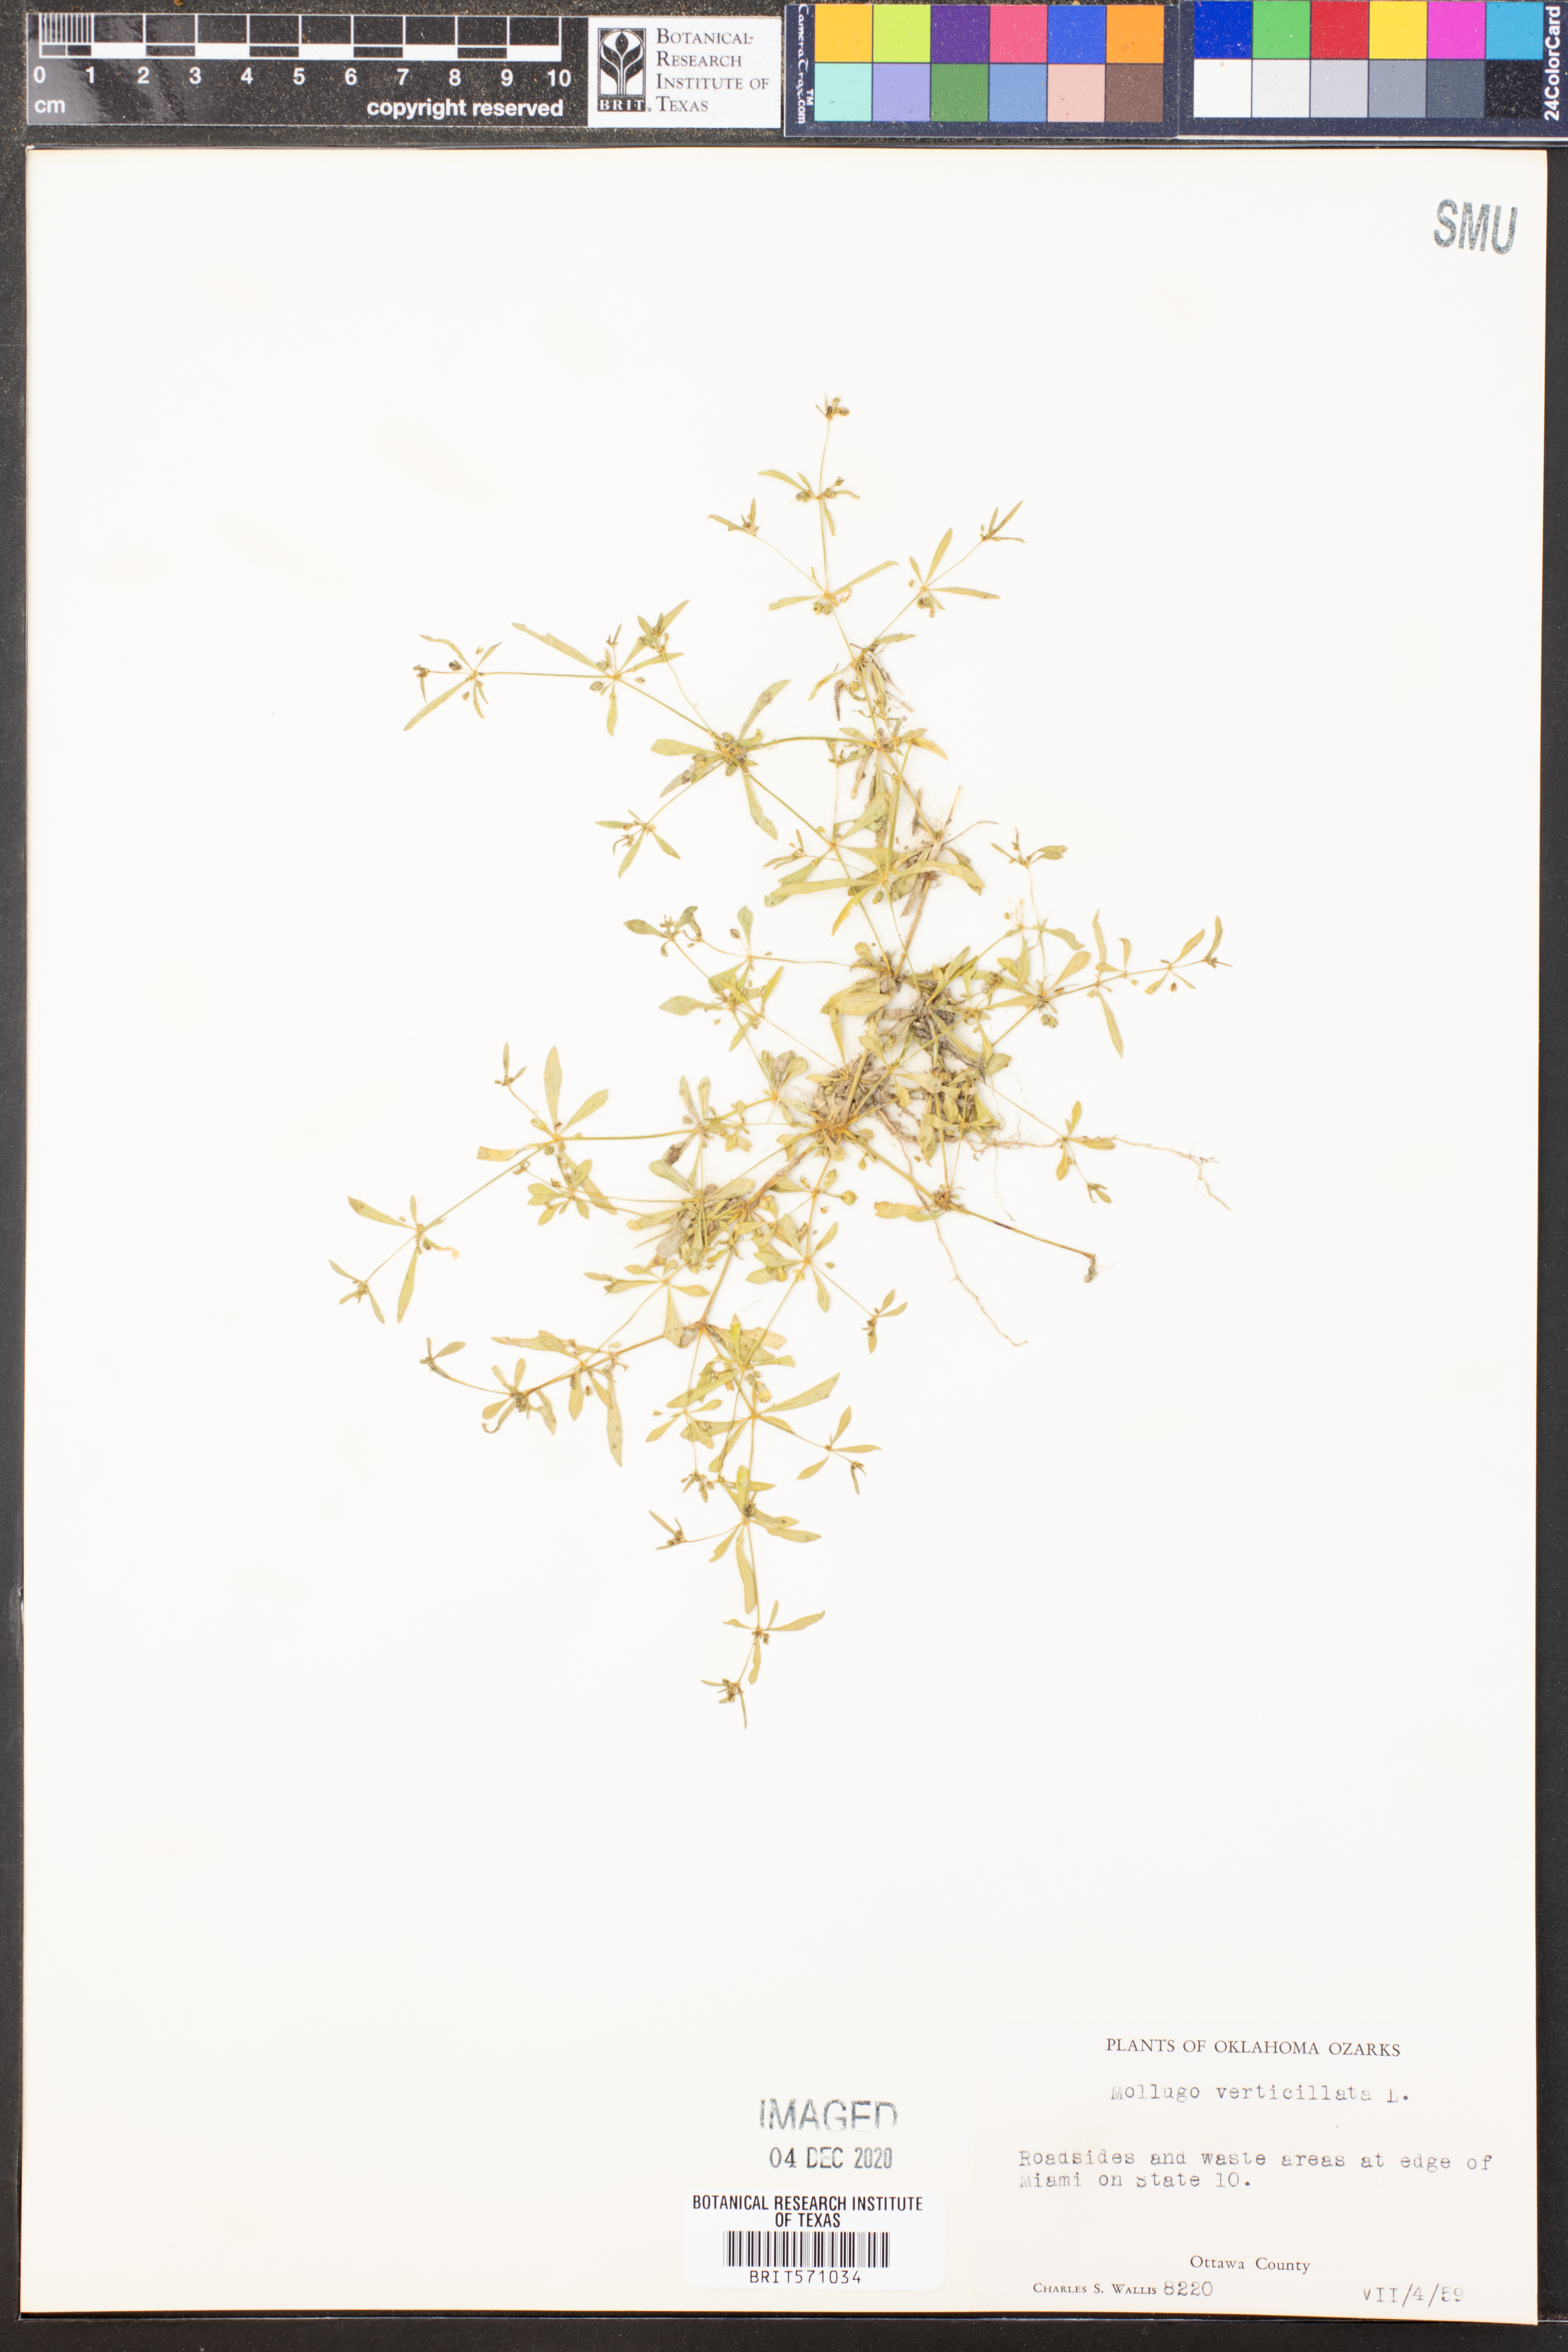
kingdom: Plantae
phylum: Tracheophyta
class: Magnoliopsida
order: Caryophyllales
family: Molluginaceae
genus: Mollugo
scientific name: Mollugo verticillata
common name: Green carpetweed
